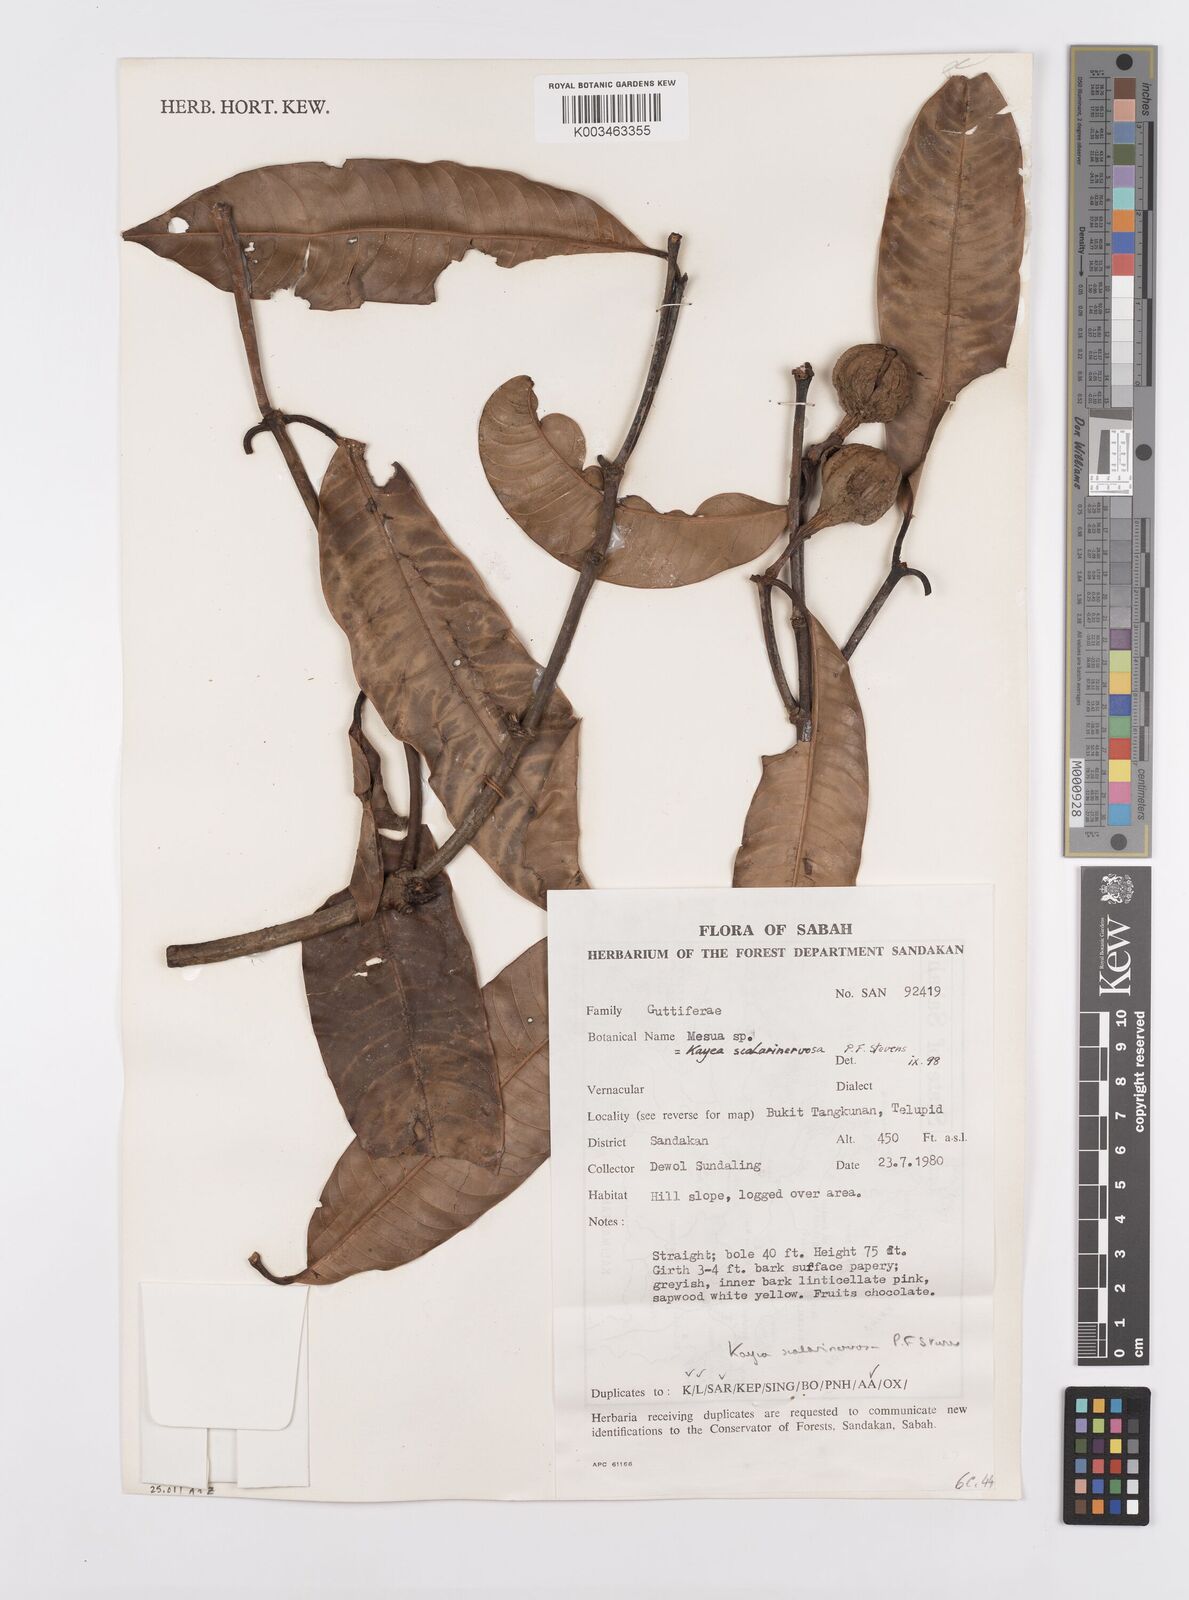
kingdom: Plantae
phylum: Tracheophyta
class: Magnoliopsida
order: Malpighiales
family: Calophyllaceae
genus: Kayea
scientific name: Kayea scalarinervosa
